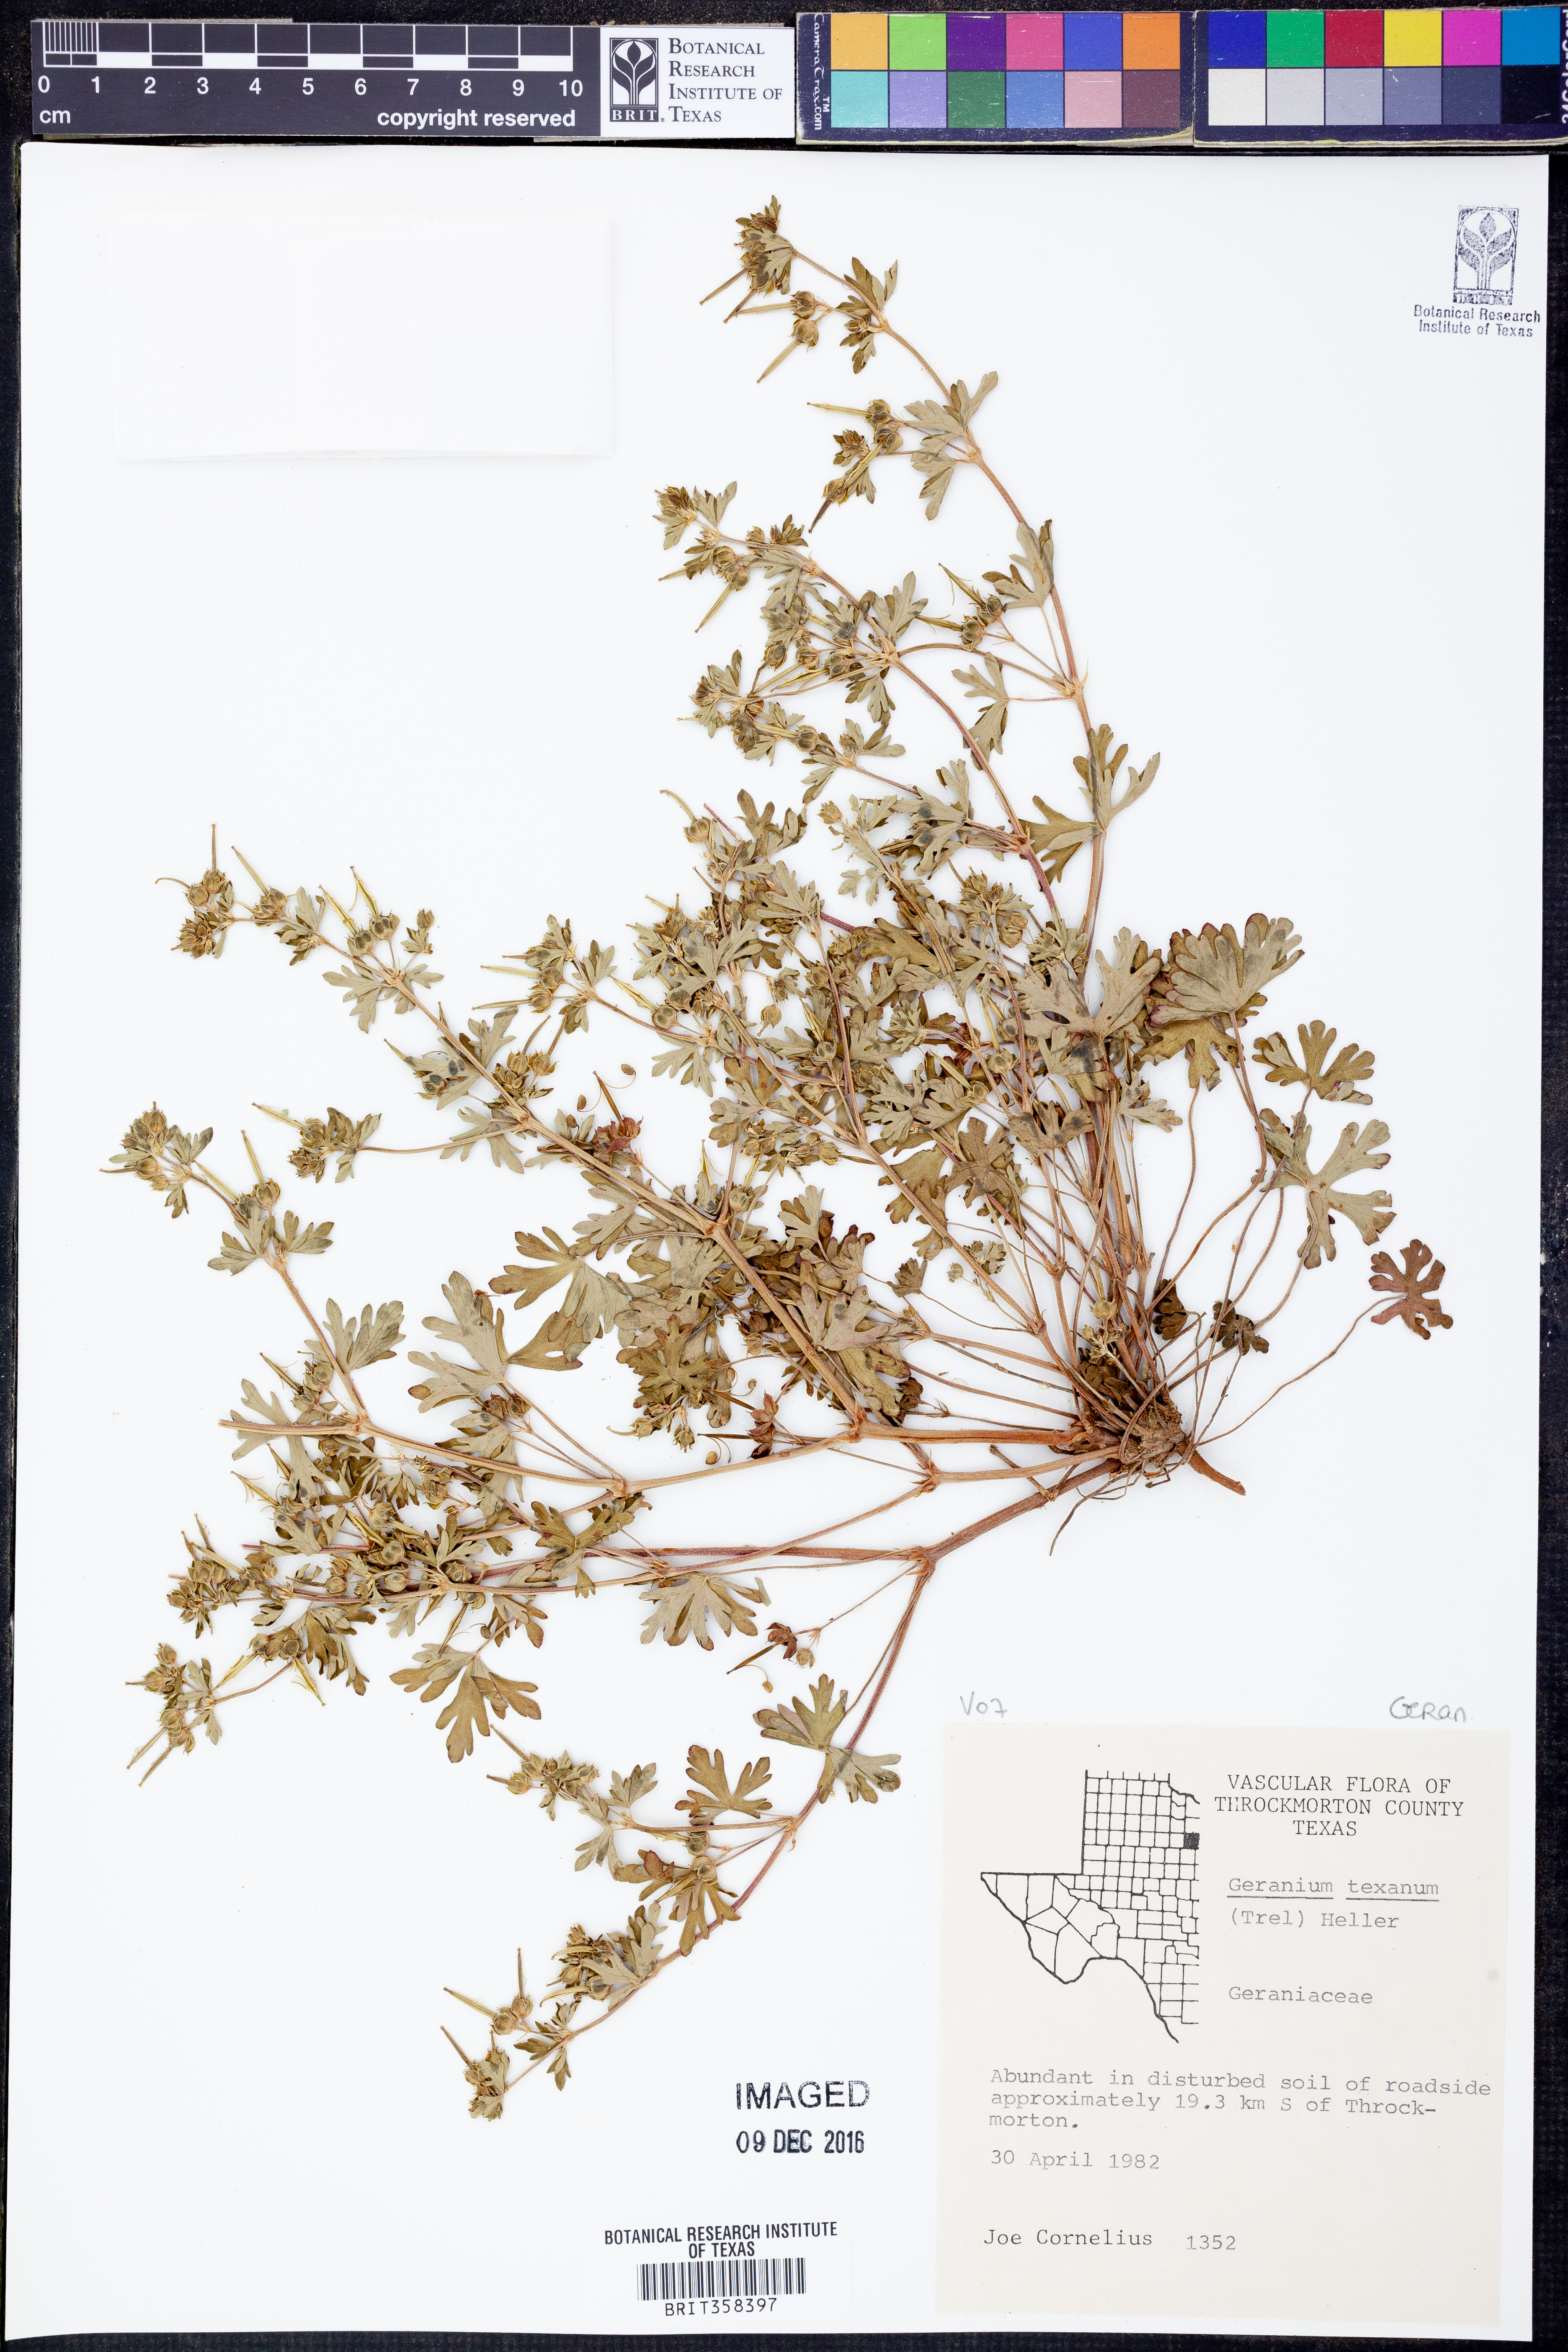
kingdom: Plantae
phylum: Tracheophyta
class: Magnoliopsida
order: Geraniales
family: Geraniaceae
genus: Geranium
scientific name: Geranium texanum
